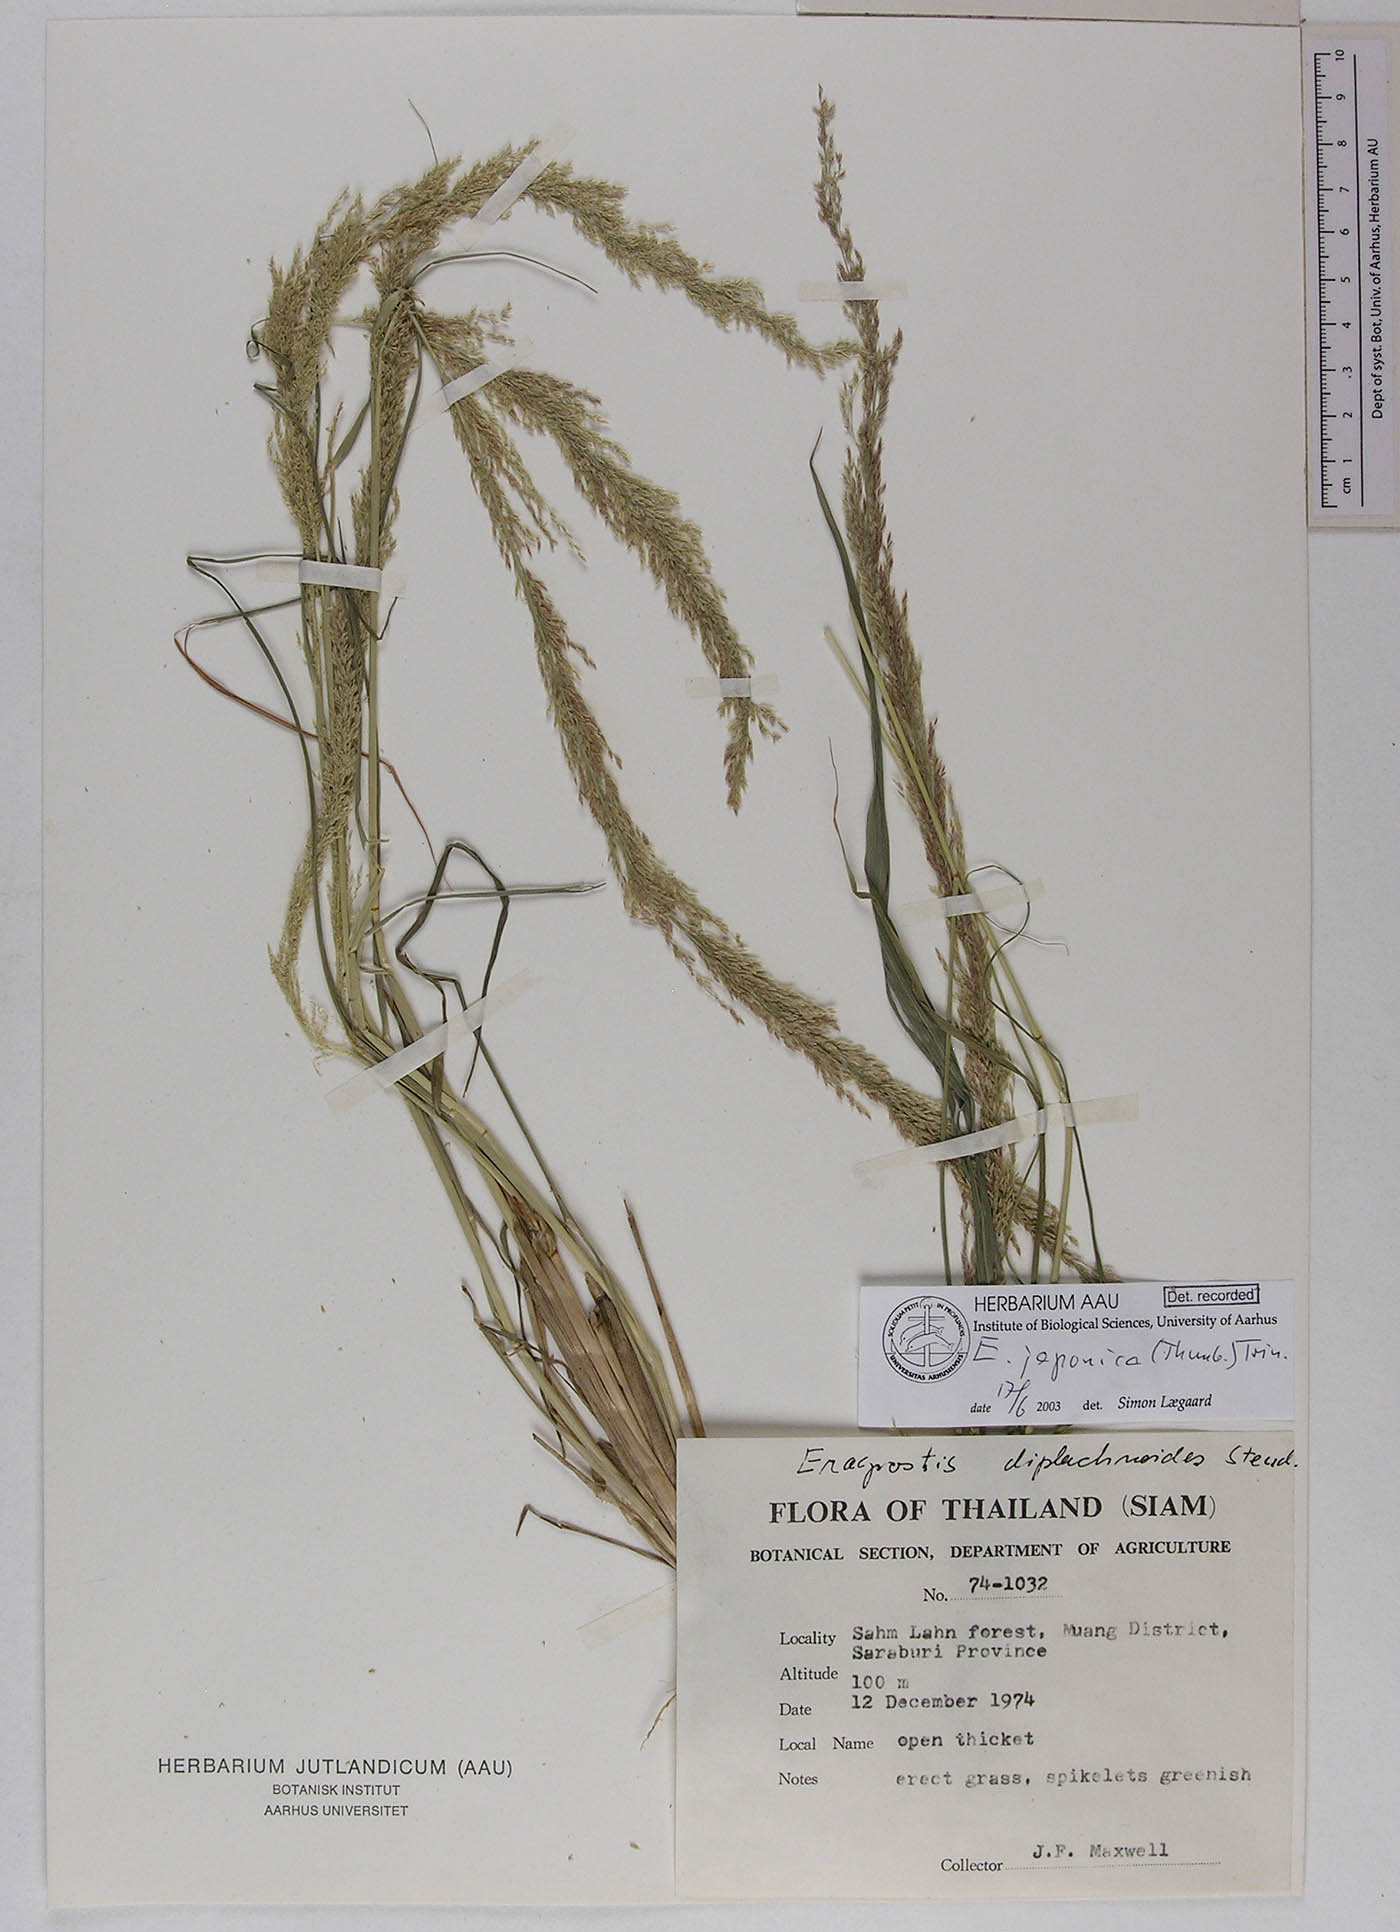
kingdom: Plantae
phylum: Tracheophyta
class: Liliopsida
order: Poales
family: Poaceae
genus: Eragrostis
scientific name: Eragrostis japonica
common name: Pond lovegrass
